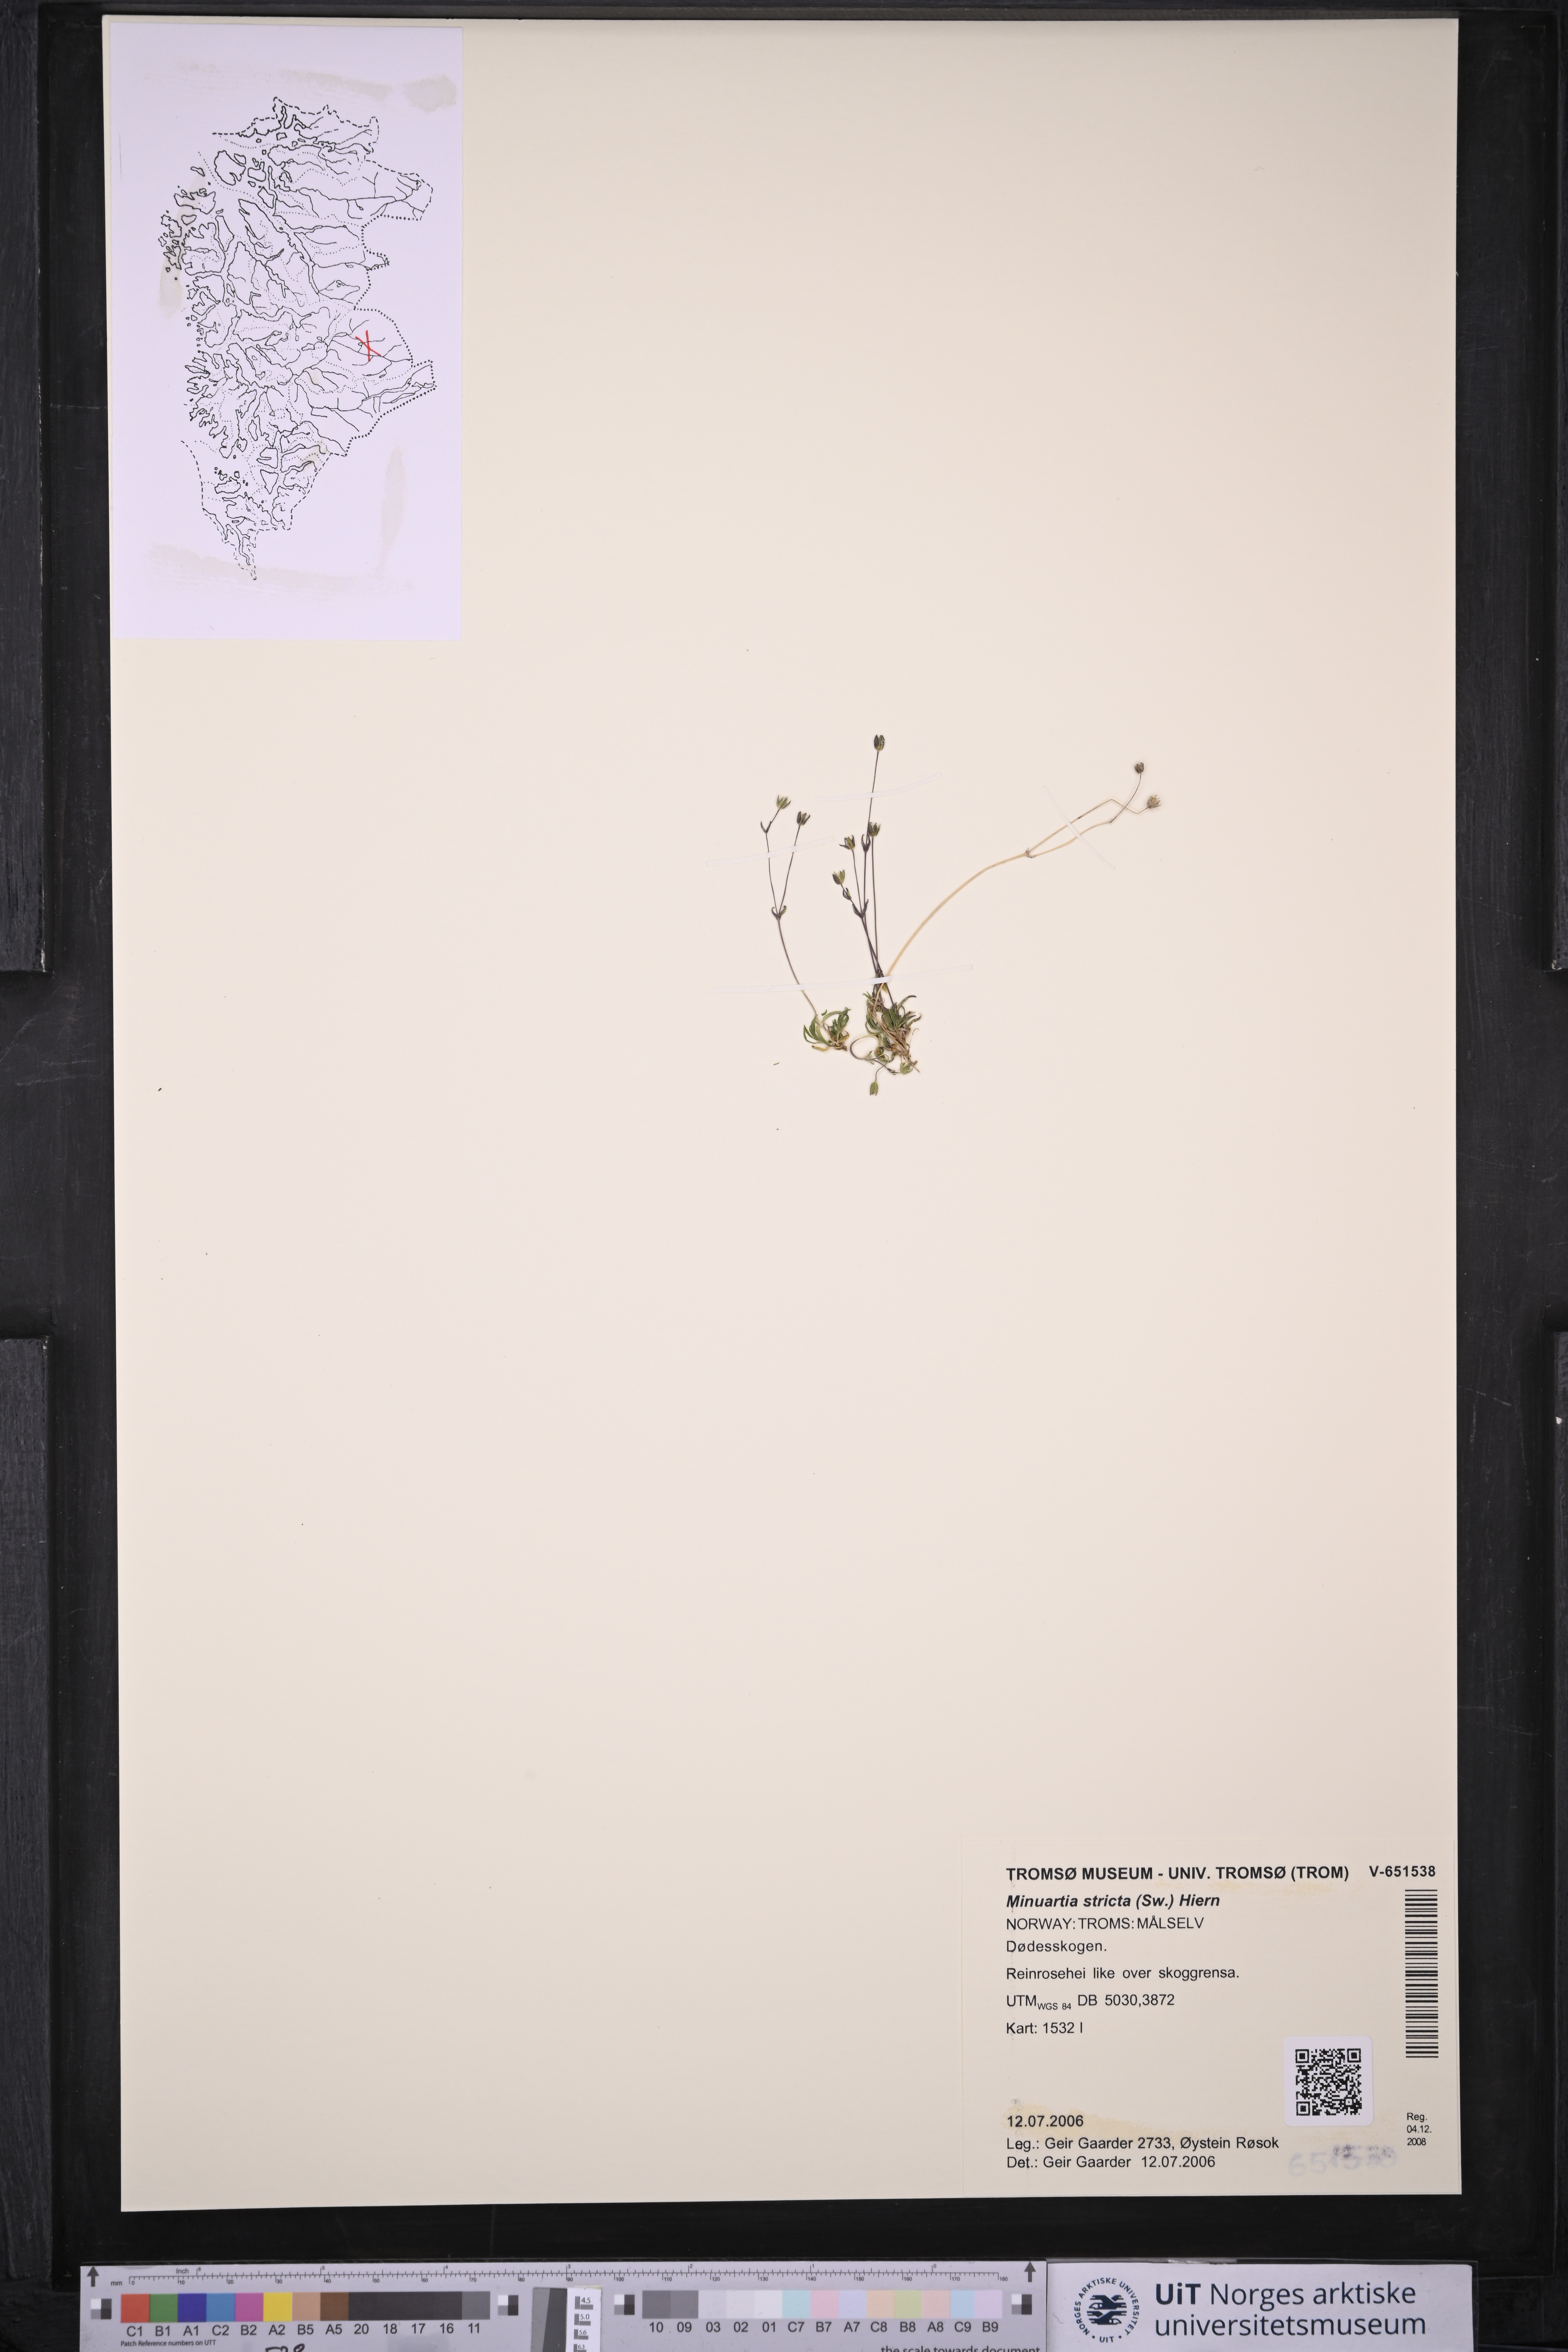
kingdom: Plantae
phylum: Tracheophyta
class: Magnoliopsida
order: Caryophyllales
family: Caryophyllaceae
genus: Sabulina
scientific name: Sabulina stricta
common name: Bog sandwort
